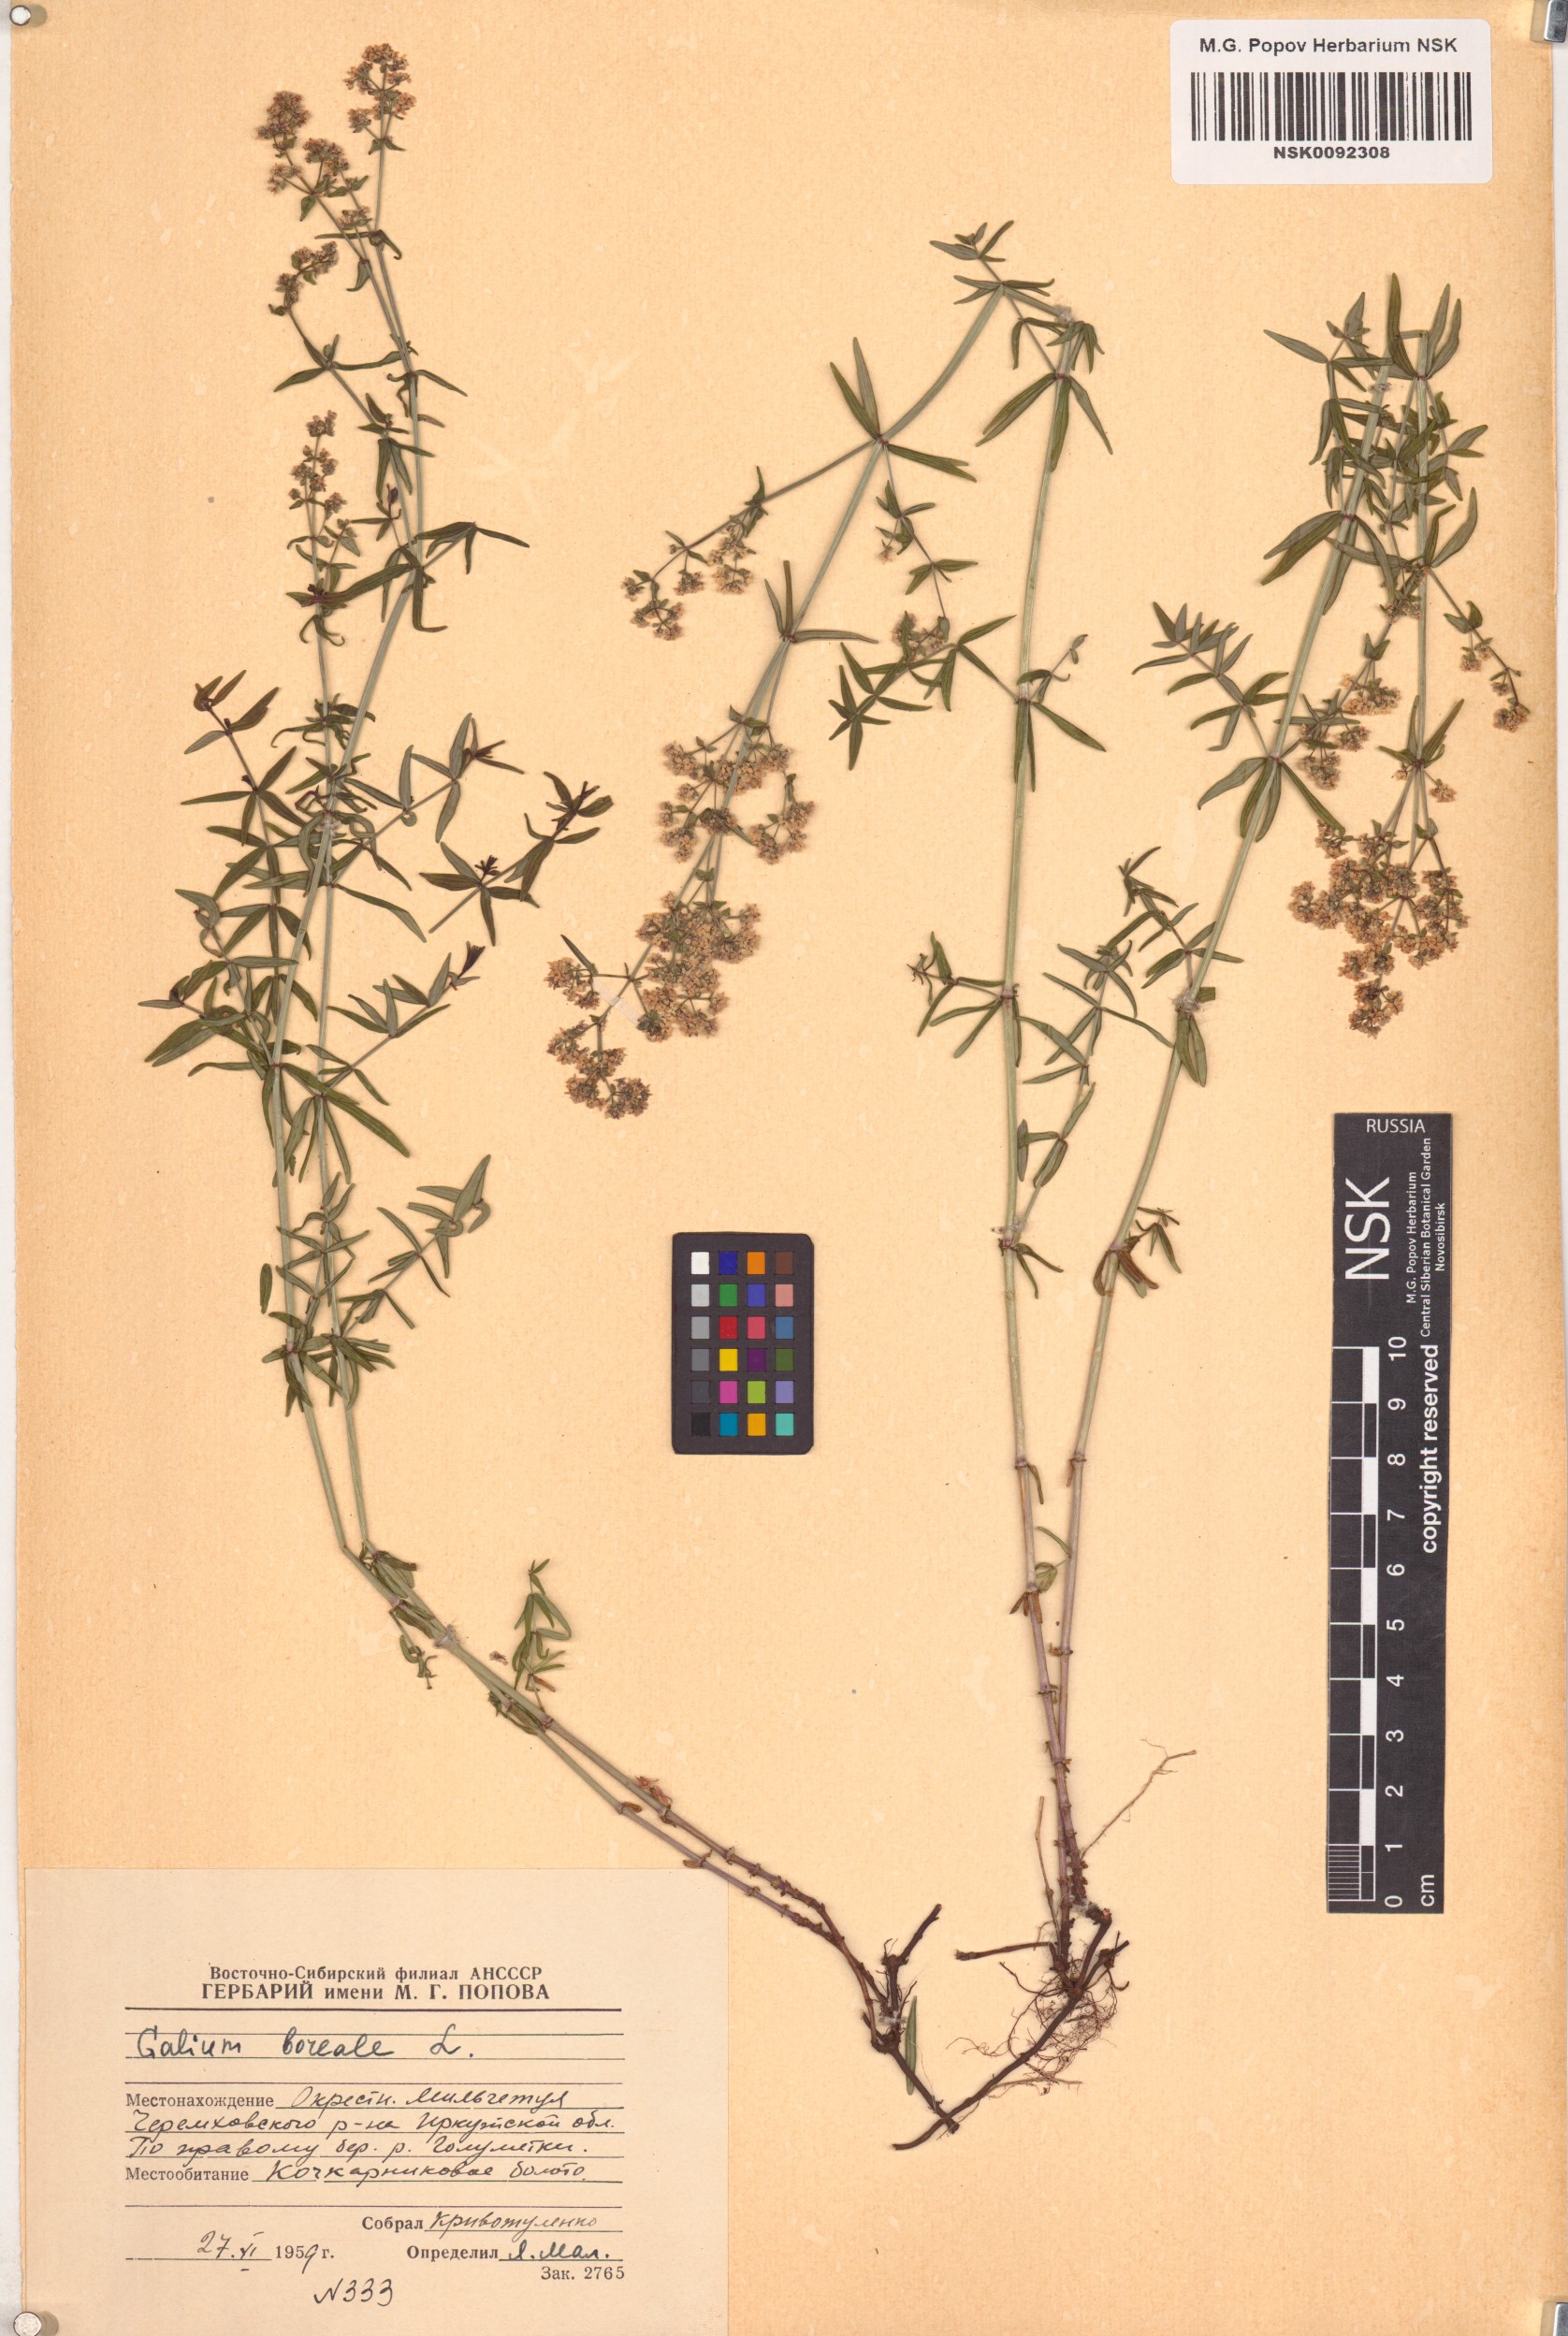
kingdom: Plantae
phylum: Tracheophyta
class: Magnoliopsida
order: Gentianales
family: Rubiaceae
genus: Galium
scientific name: Galium boreale
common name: Northern bedstraw
